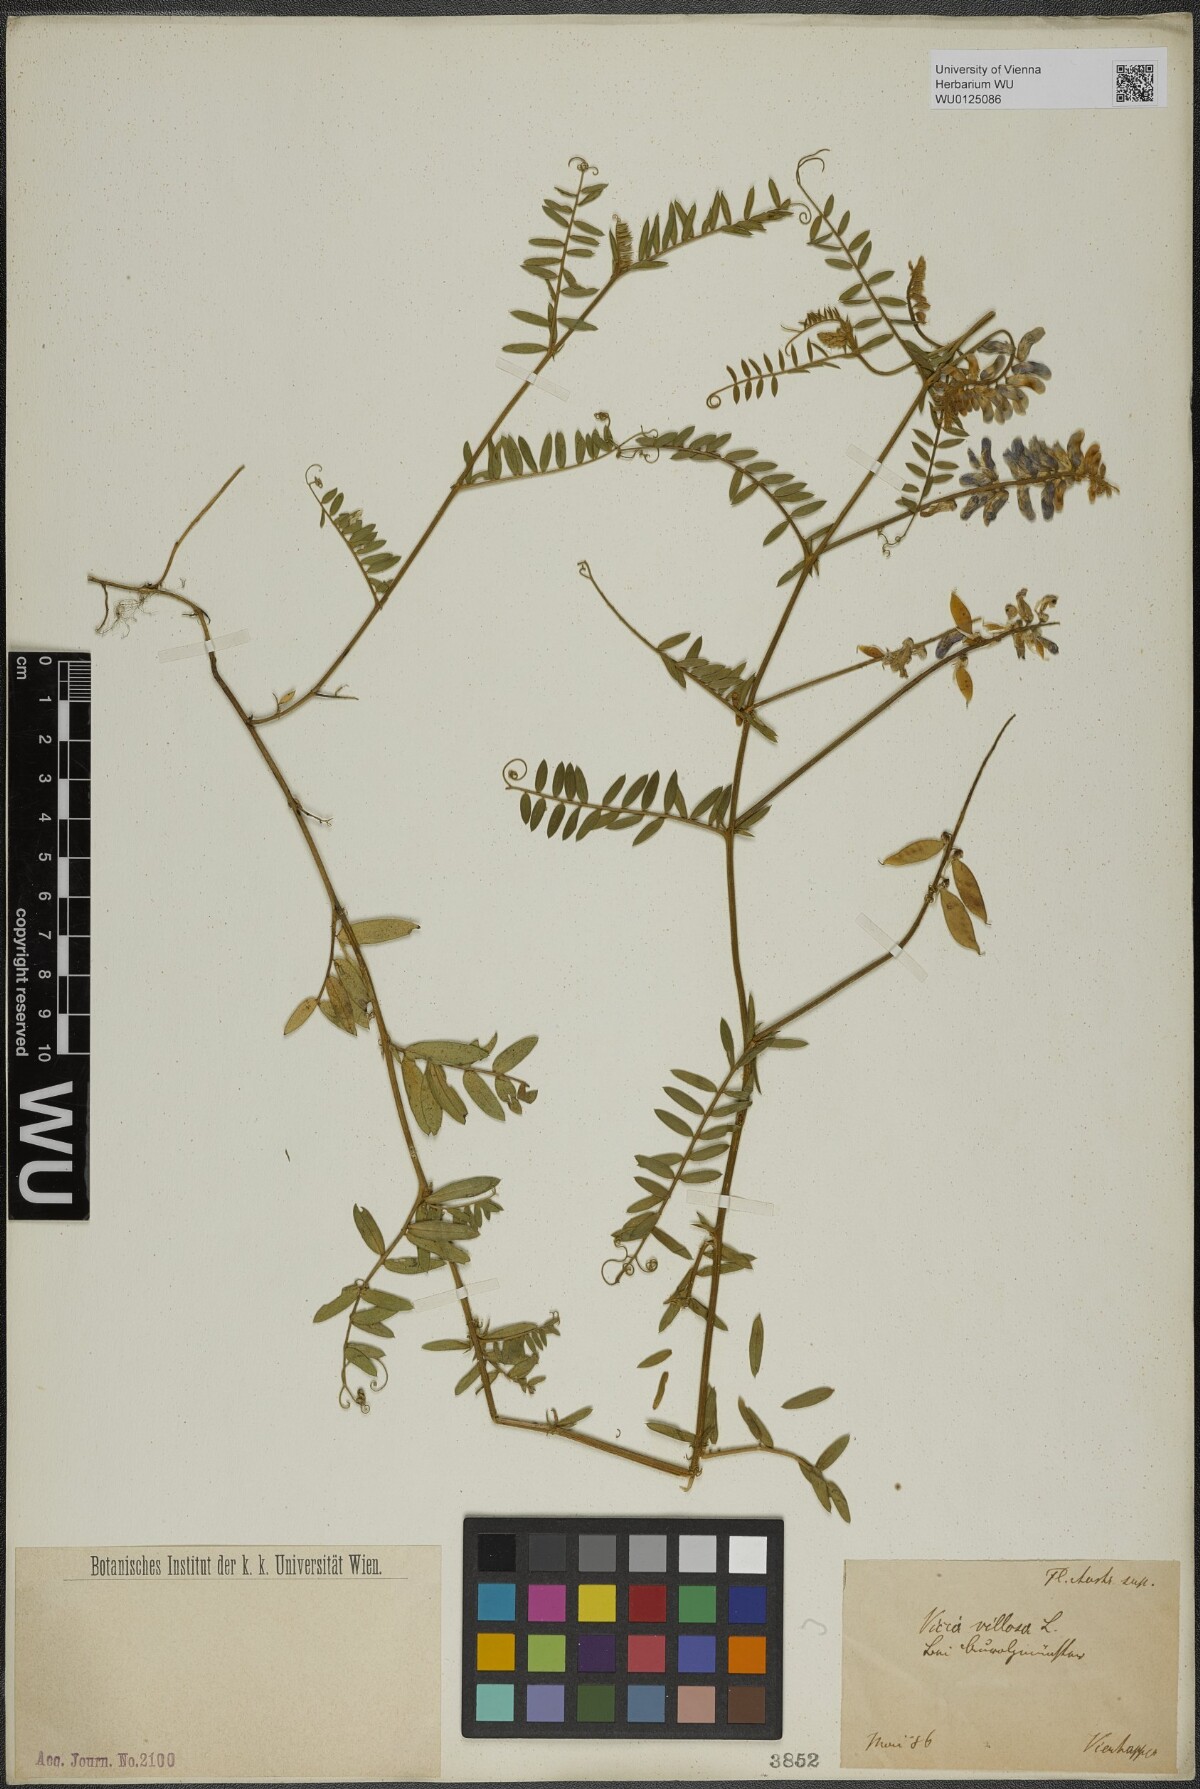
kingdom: Plantae
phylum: Tracheophyta
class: Magnoliopsida
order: Fabales
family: Fabaceae
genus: Vicia
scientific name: Vicia villosa
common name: Fodder vetch
